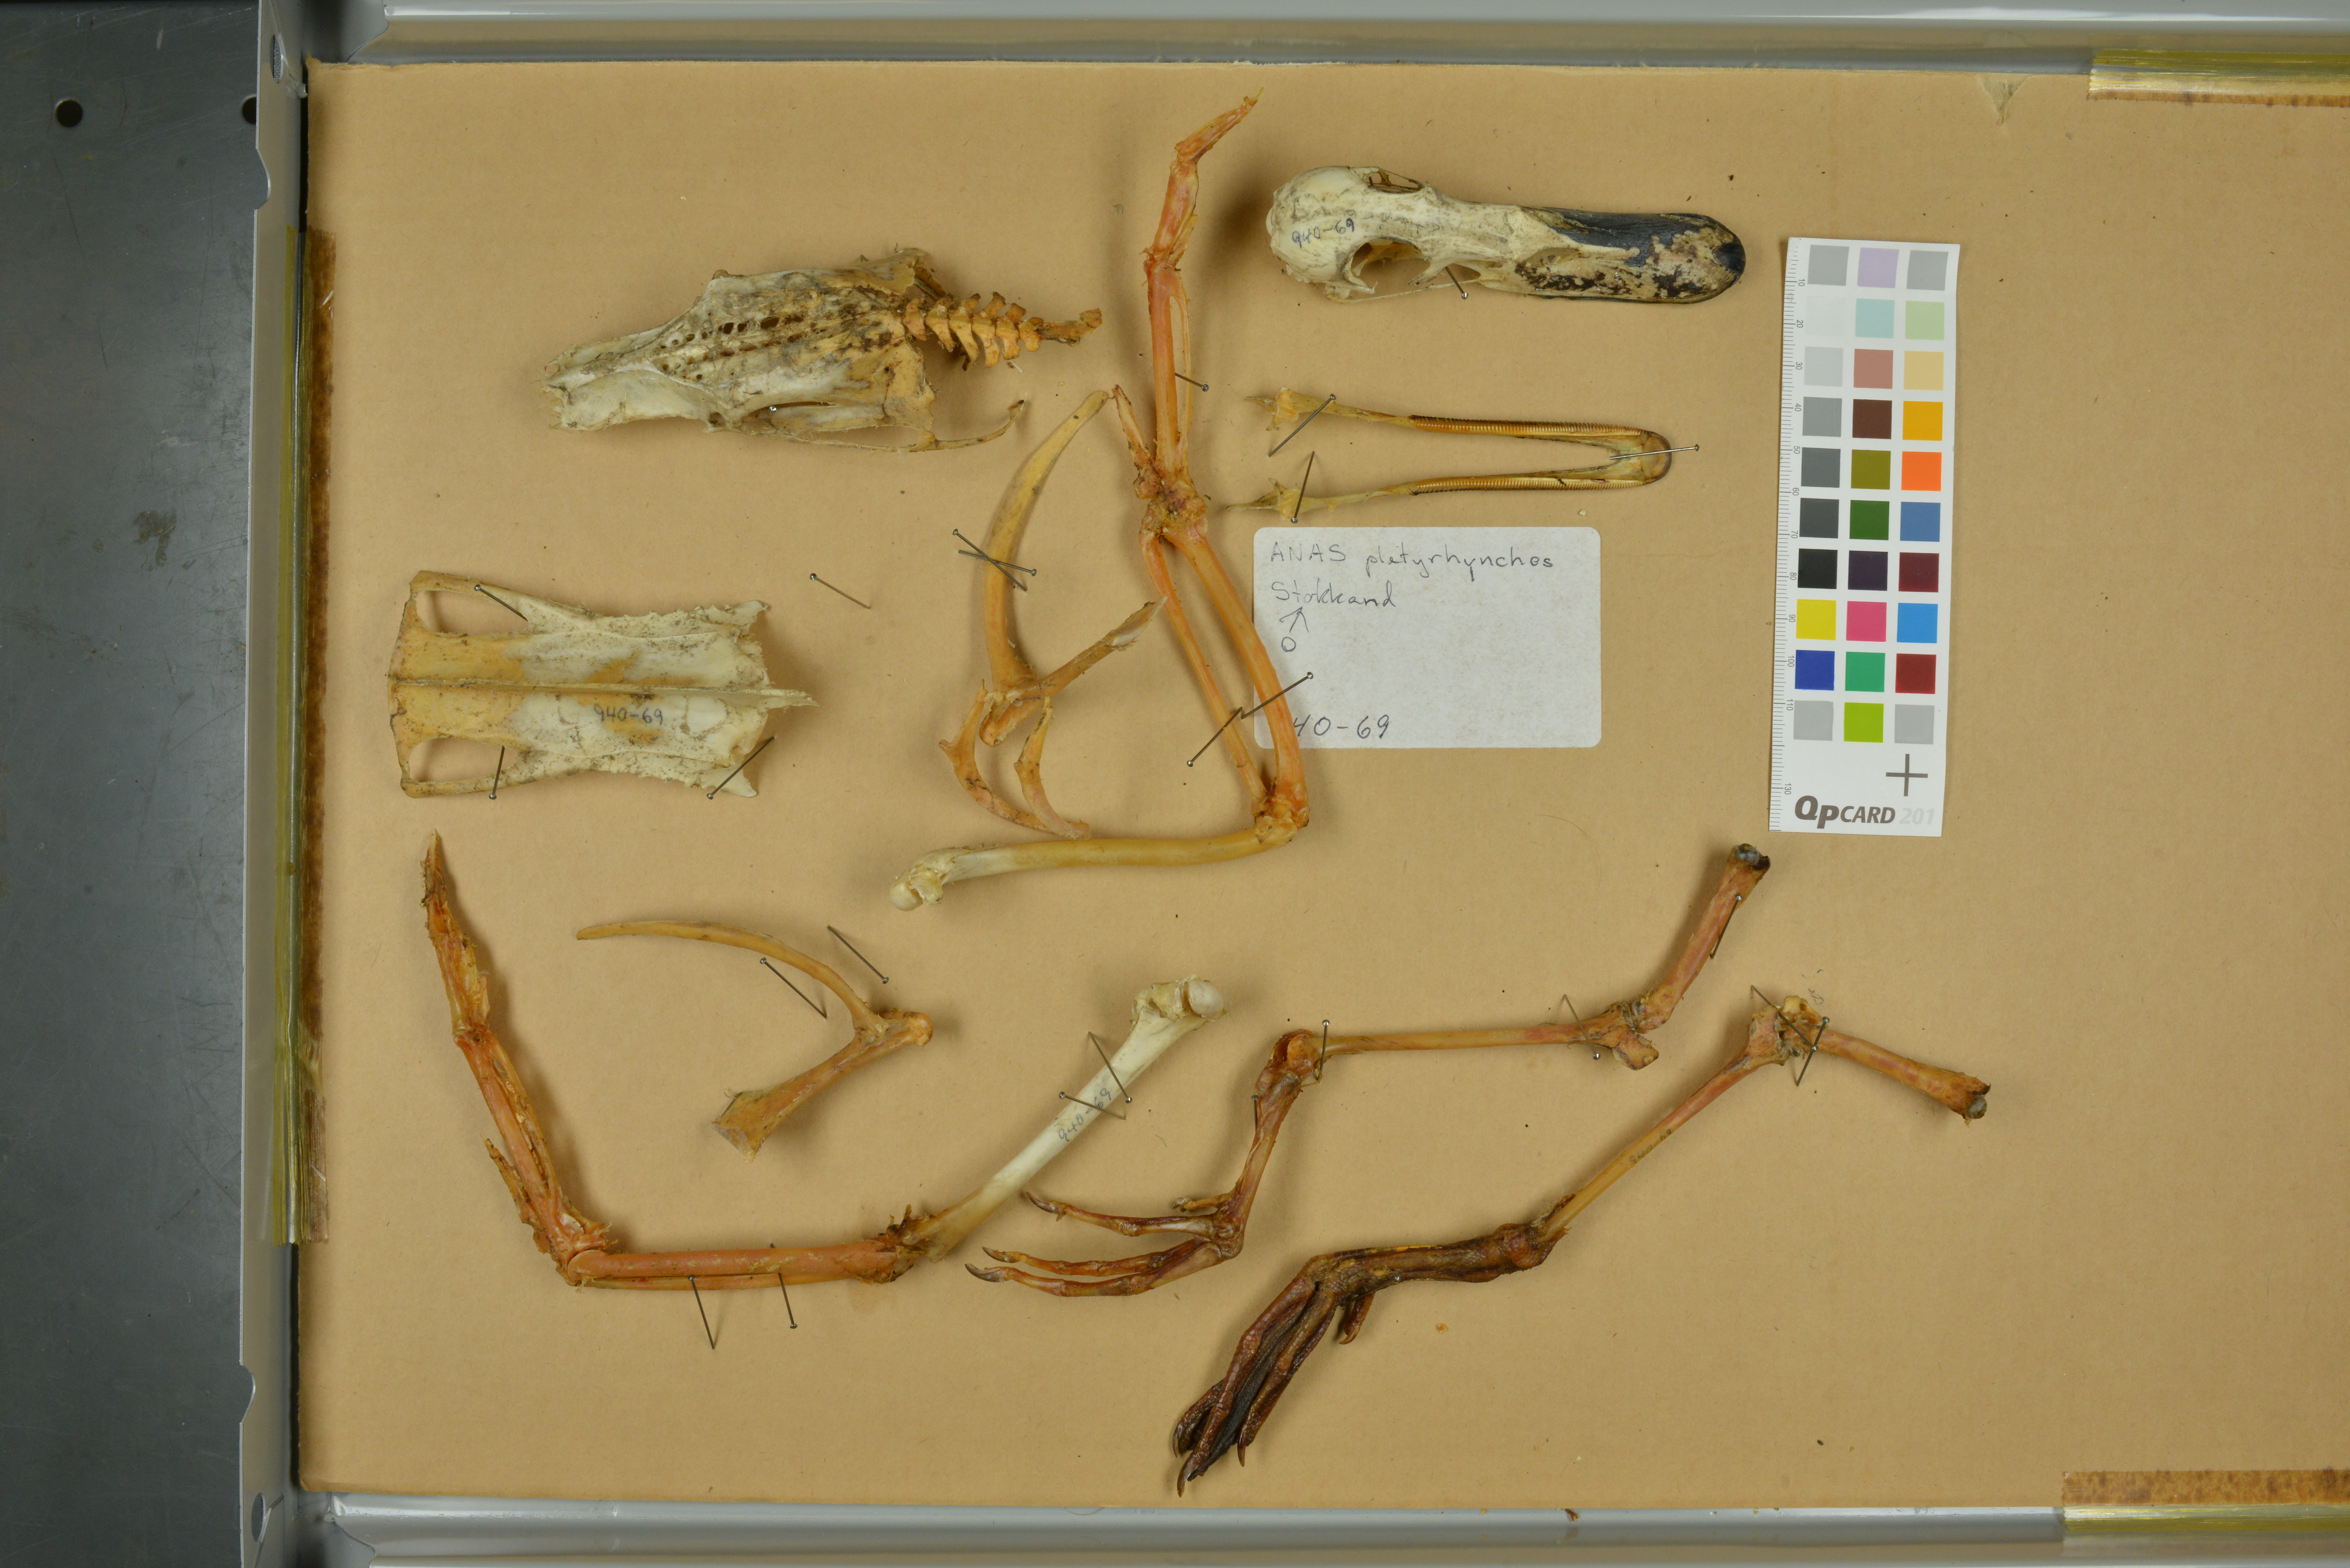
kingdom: Animalia
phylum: Chordata
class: Aves
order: Anseriformes
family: Anatidae
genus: Anas
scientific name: Anas platyrhynchos
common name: Mallard
